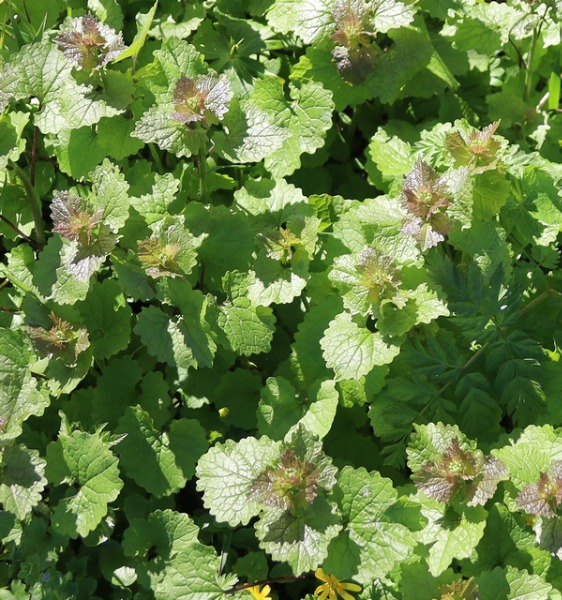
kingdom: Plantae
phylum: Tracheophyta
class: Magnoliopsida
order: Brassicales
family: Brassicaceae
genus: Alliaria
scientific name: Alliaria petiolata
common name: Løgkarse
